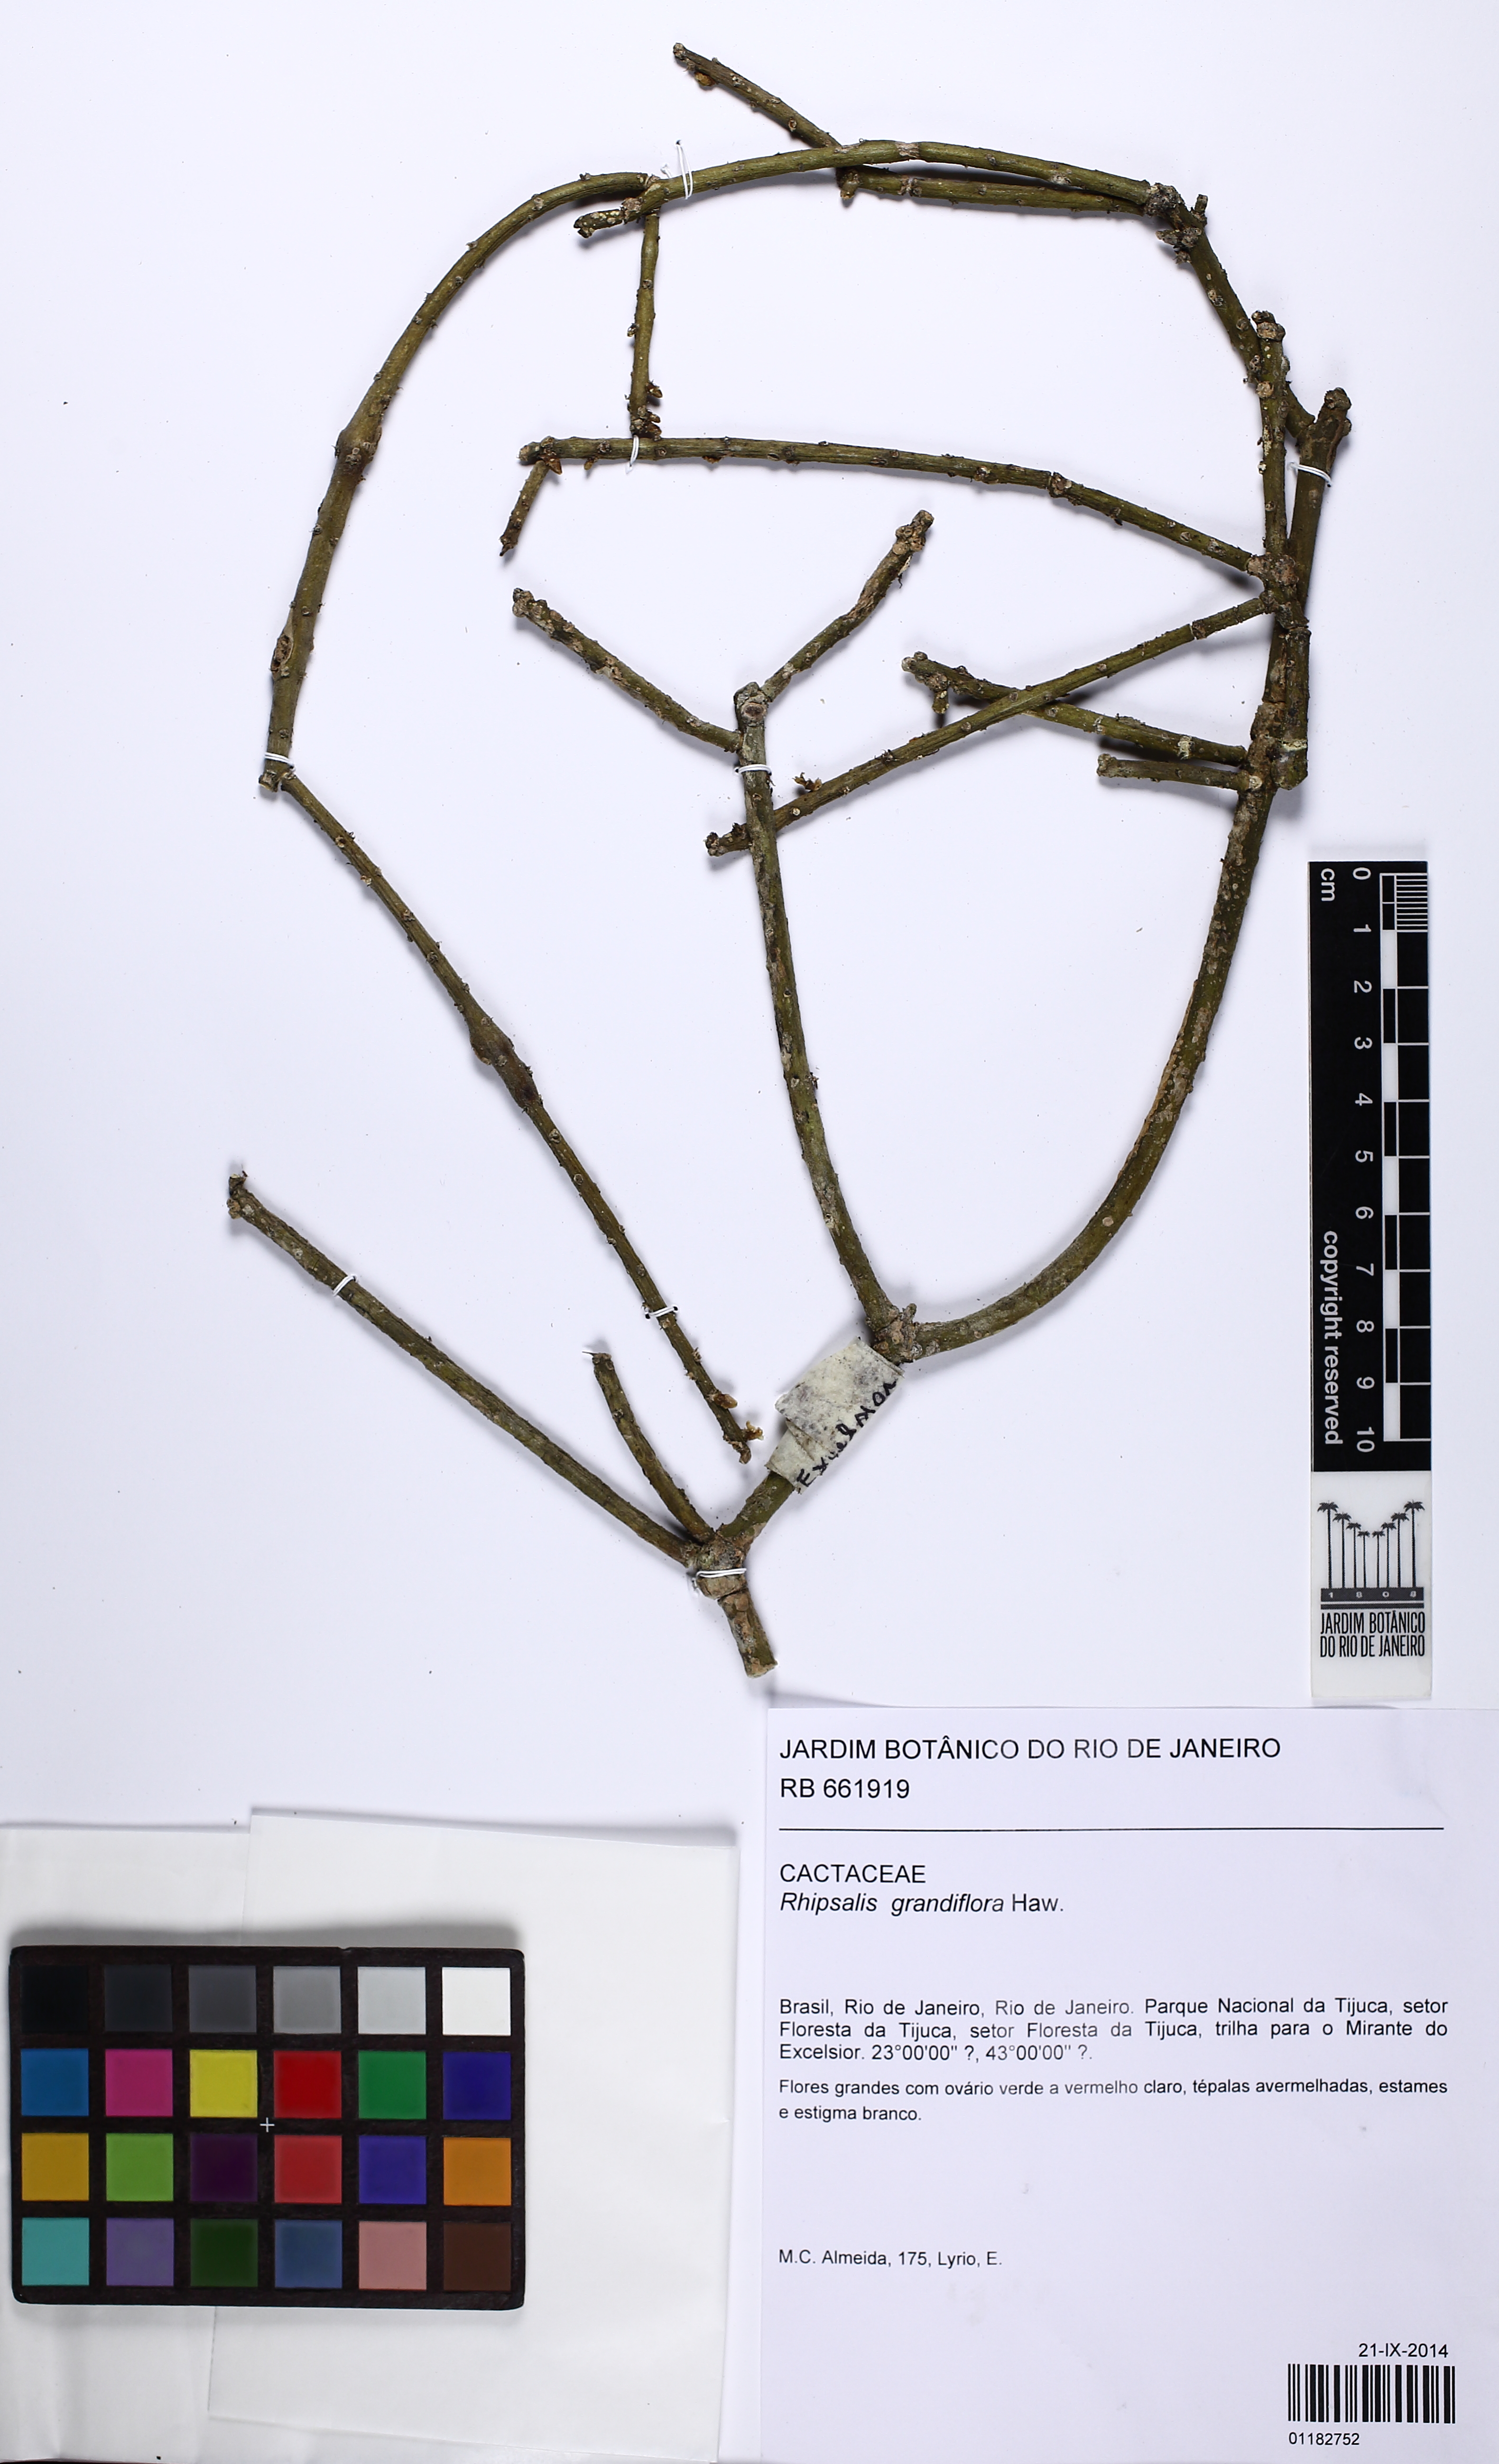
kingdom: Plantae
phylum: Tracheophyta
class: Magnoliopsida
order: Caryophyllales
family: Cactaceae
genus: Rhipsalis
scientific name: Rhipsalis grandiflora
